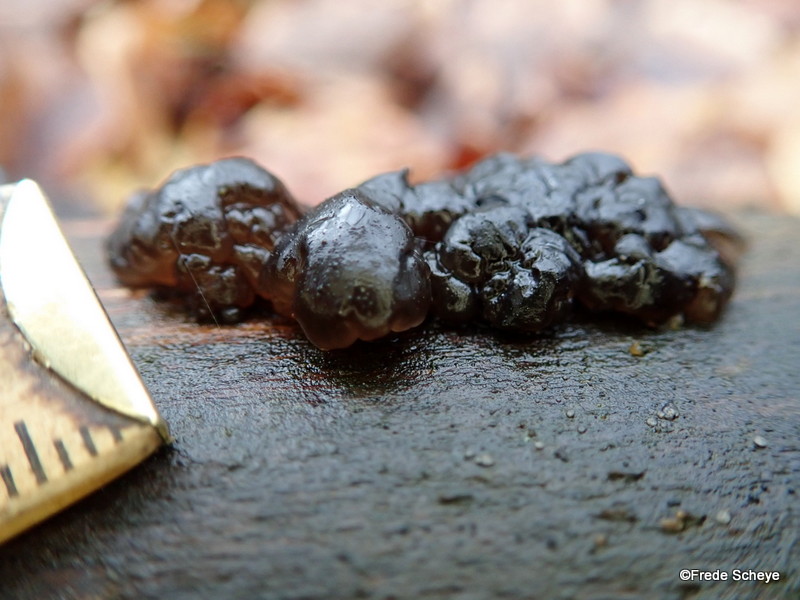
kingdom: Fungi
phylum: Basidiomycota
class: Agaricomycetes
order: Auriculariales
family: Auriculariaceae
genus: Exidia
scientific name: Exidia nigricans
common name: almindelig bævretop
